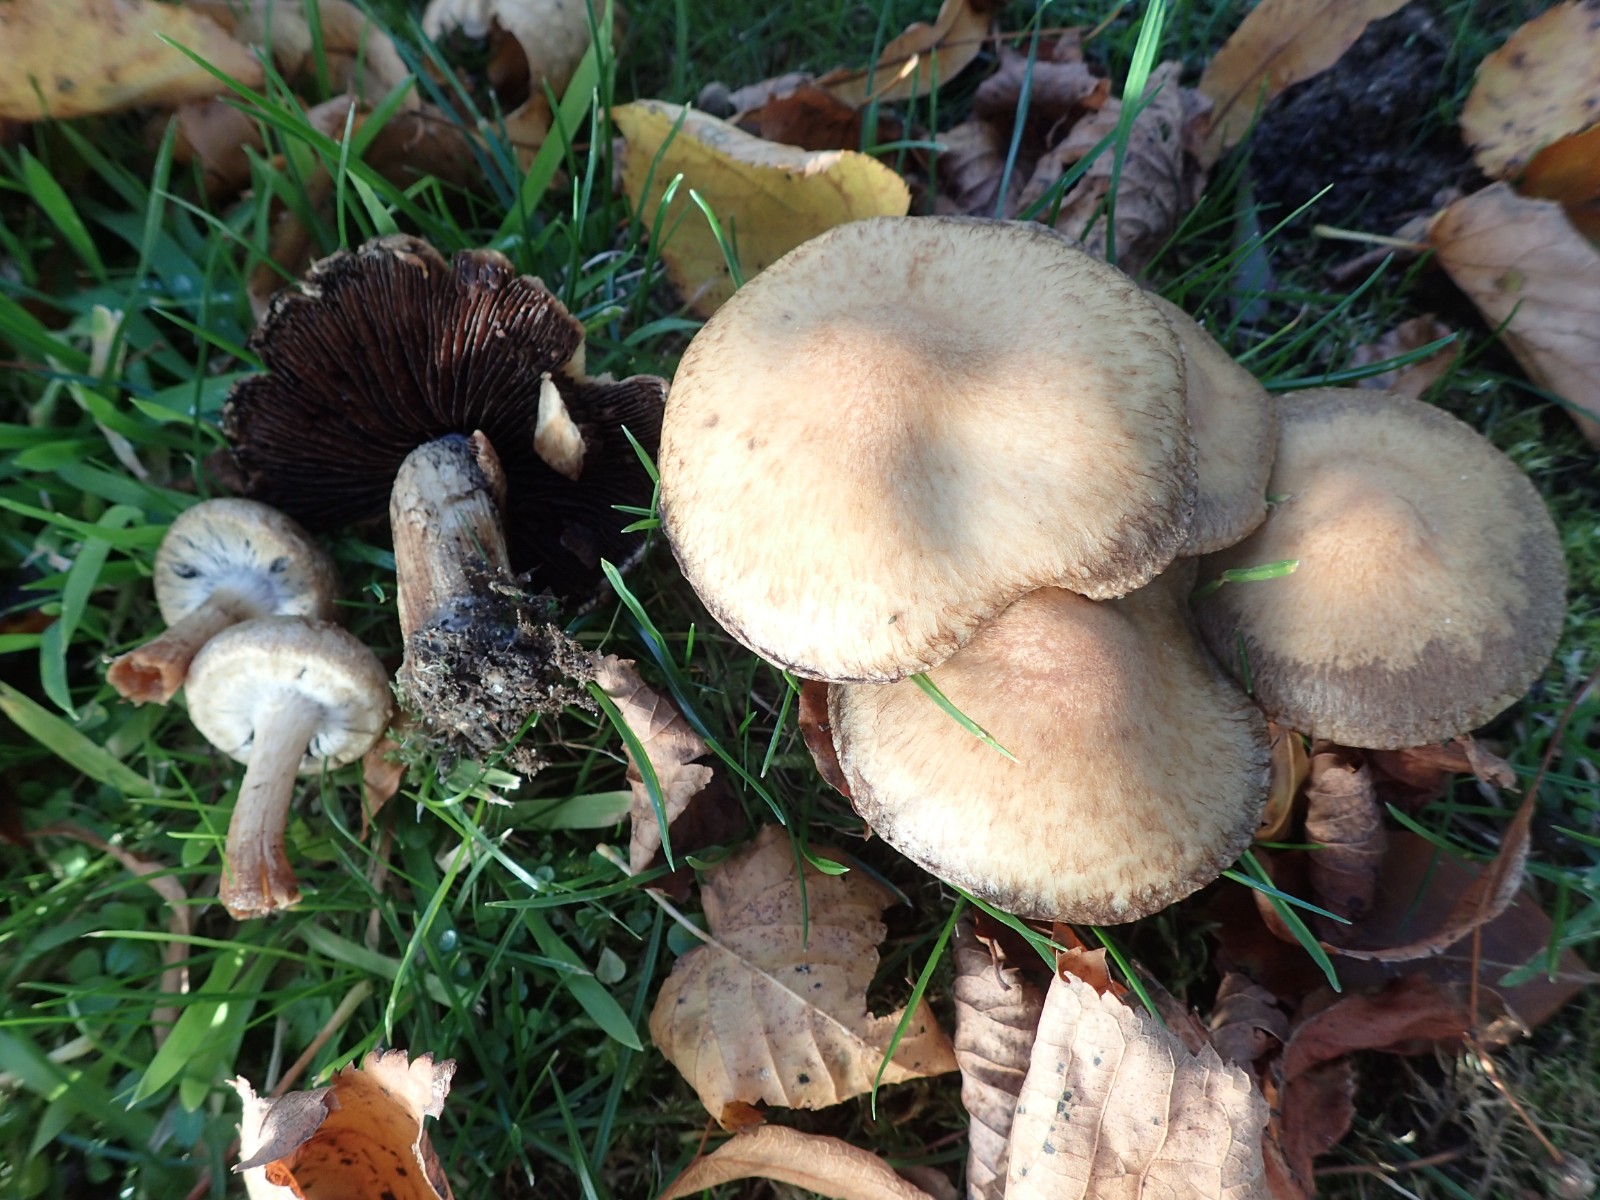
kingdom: Fungi
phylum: Basidiomycota
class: Agaricomycetes
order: Agaricales
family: Psathyrellaceae
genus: Lacrymaria
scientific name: Lacrymaria lacrymabunda
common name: grædende mørkhat
